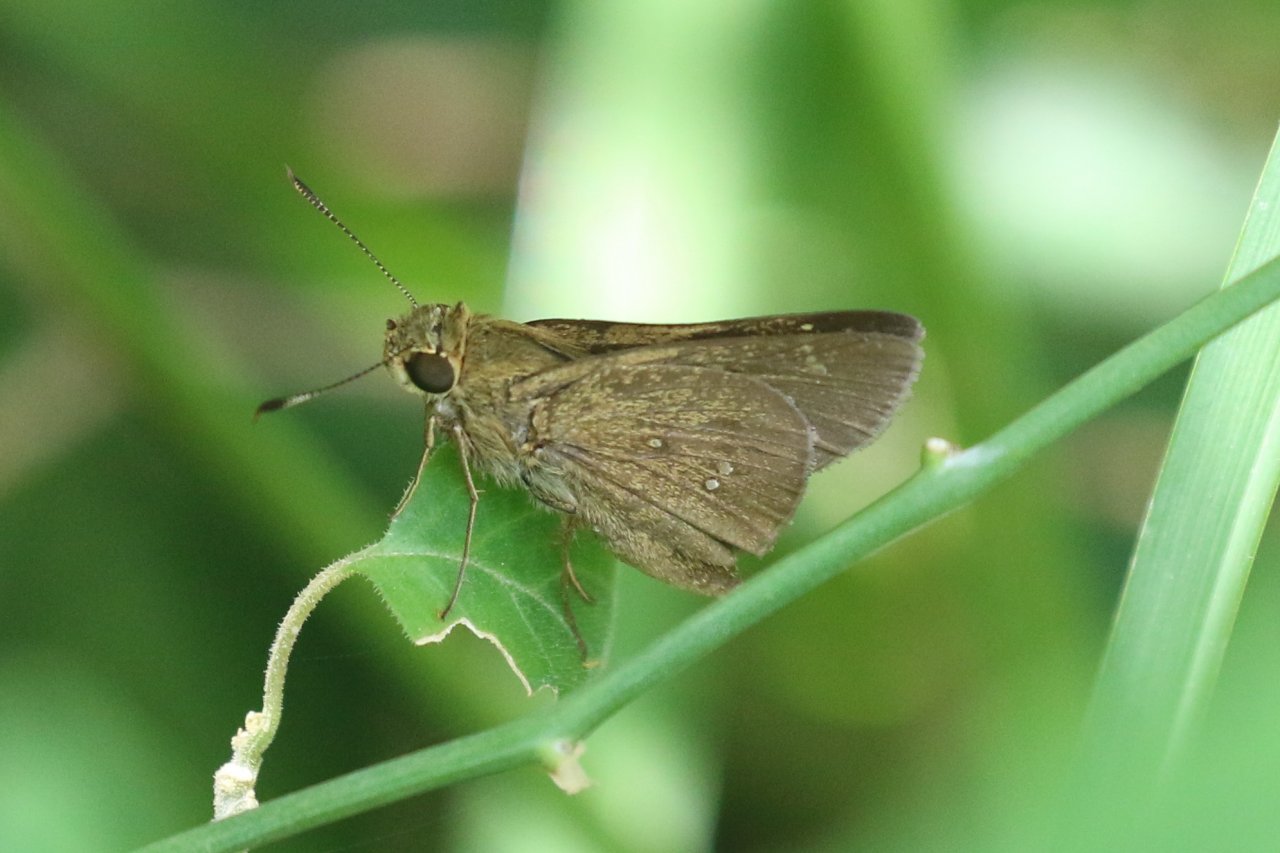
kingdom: Animalia
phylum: Arthropoda
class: Insecta
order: Lepidoptera
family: Hesperiidae
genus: Decinea
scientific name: Decinea percosius
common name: Double-dotted Skipper
